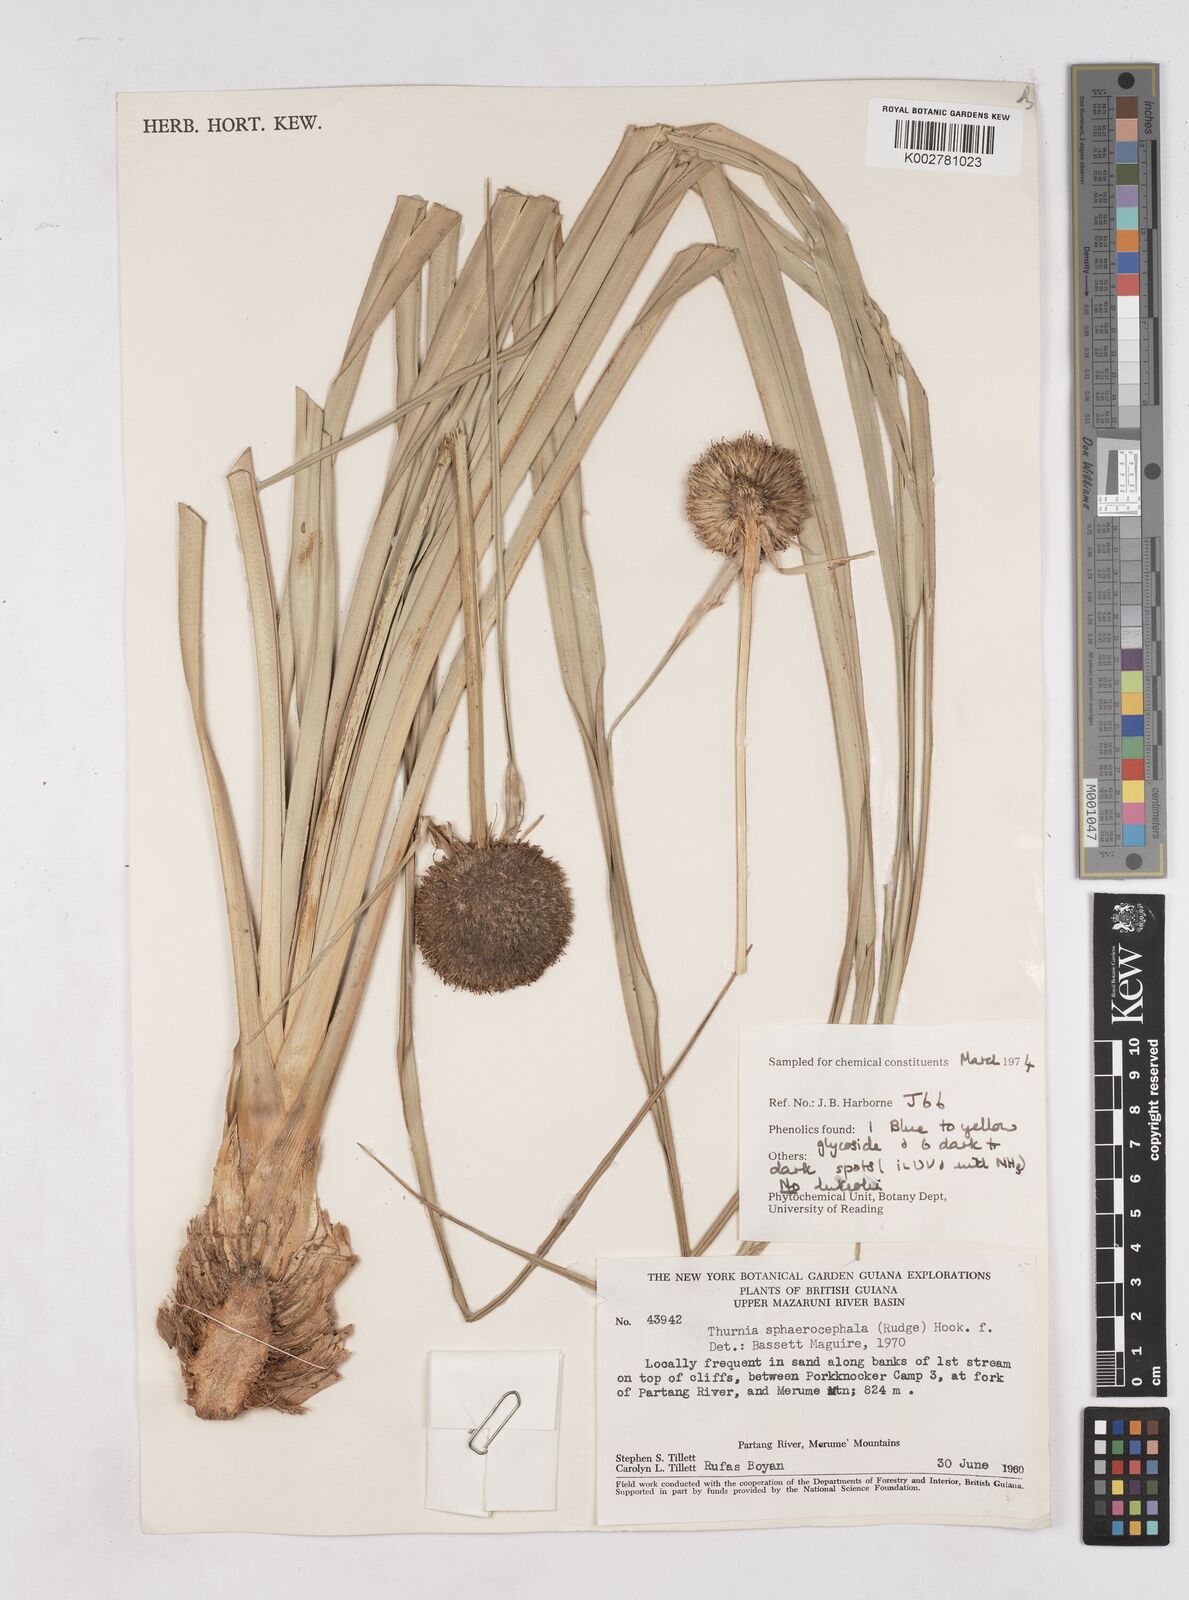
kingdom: Plantae
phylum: Tracheophyta
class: Liliopsida
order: Poales
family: Thurniaceae
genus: Thurnia
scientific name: Thurnia sphaerocephala
